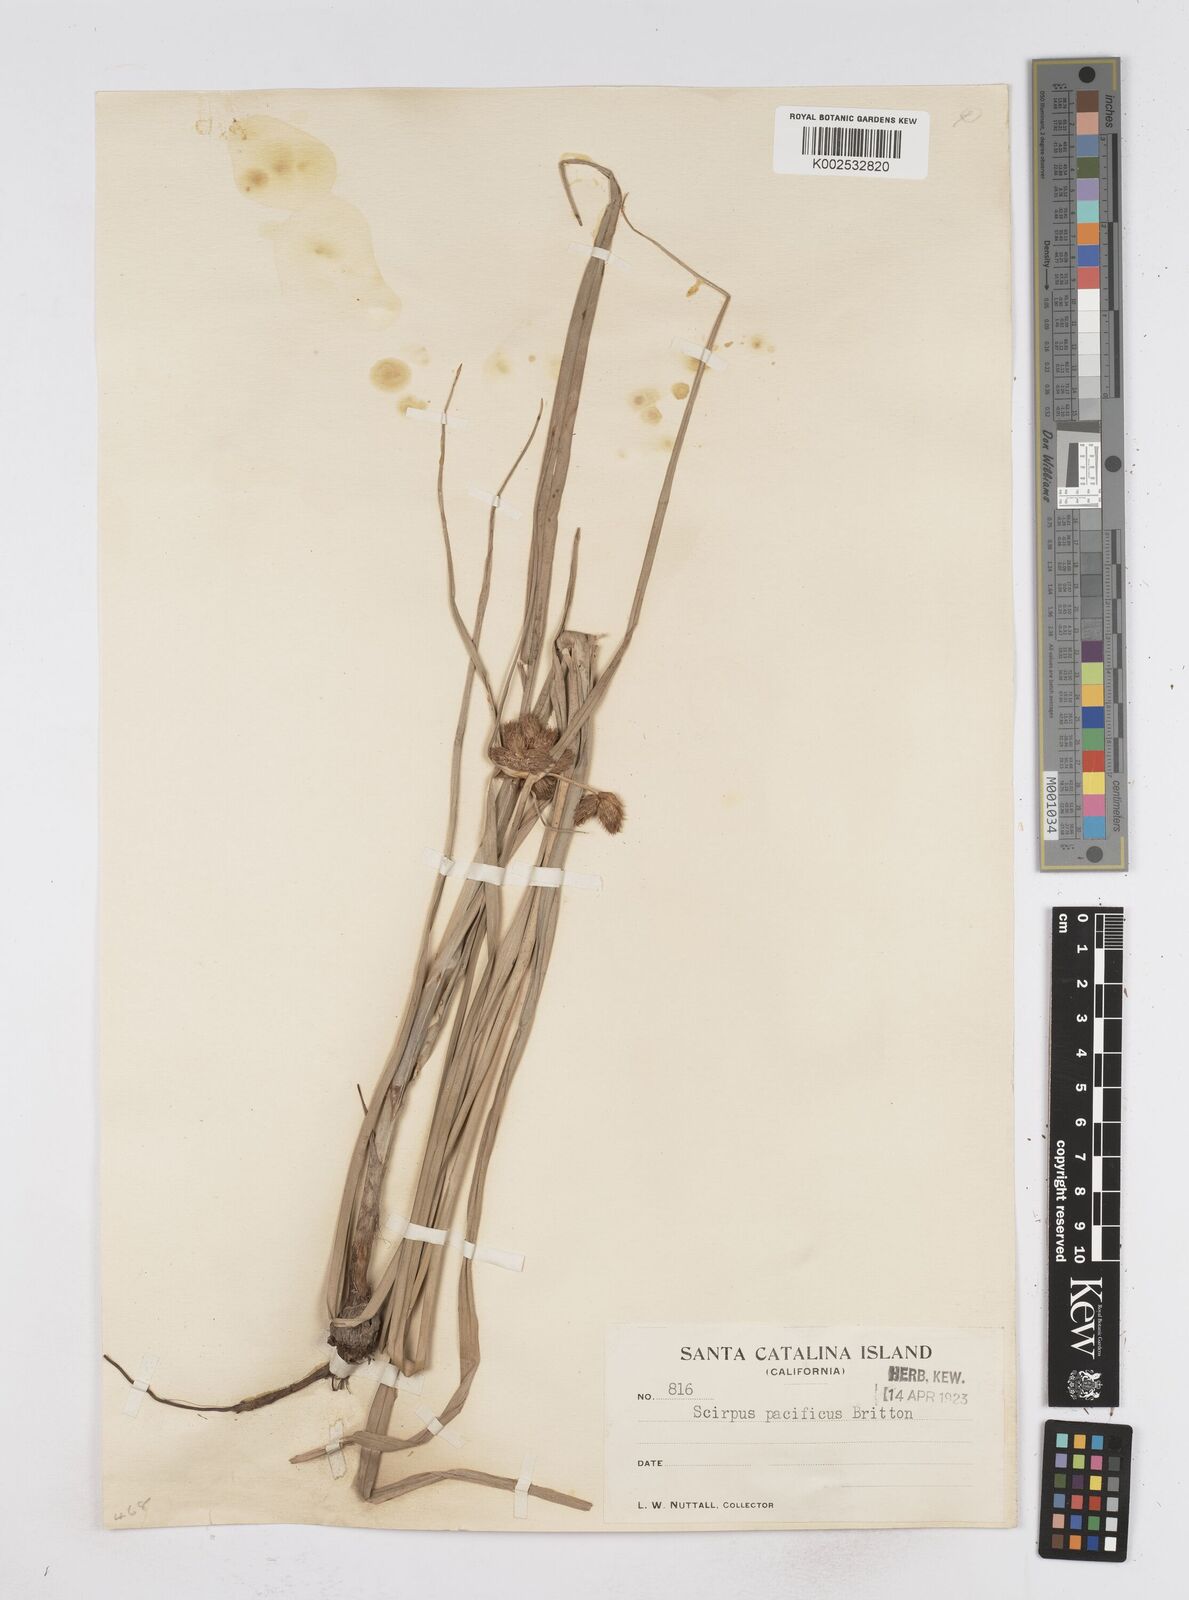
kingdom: Plantae
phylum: Tracheophyta
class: Liliopsida
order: Poales
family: Cyperaceae
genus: Bolboschoenus
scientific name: Bolboschoenus maritimus
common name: Sea club-rush
